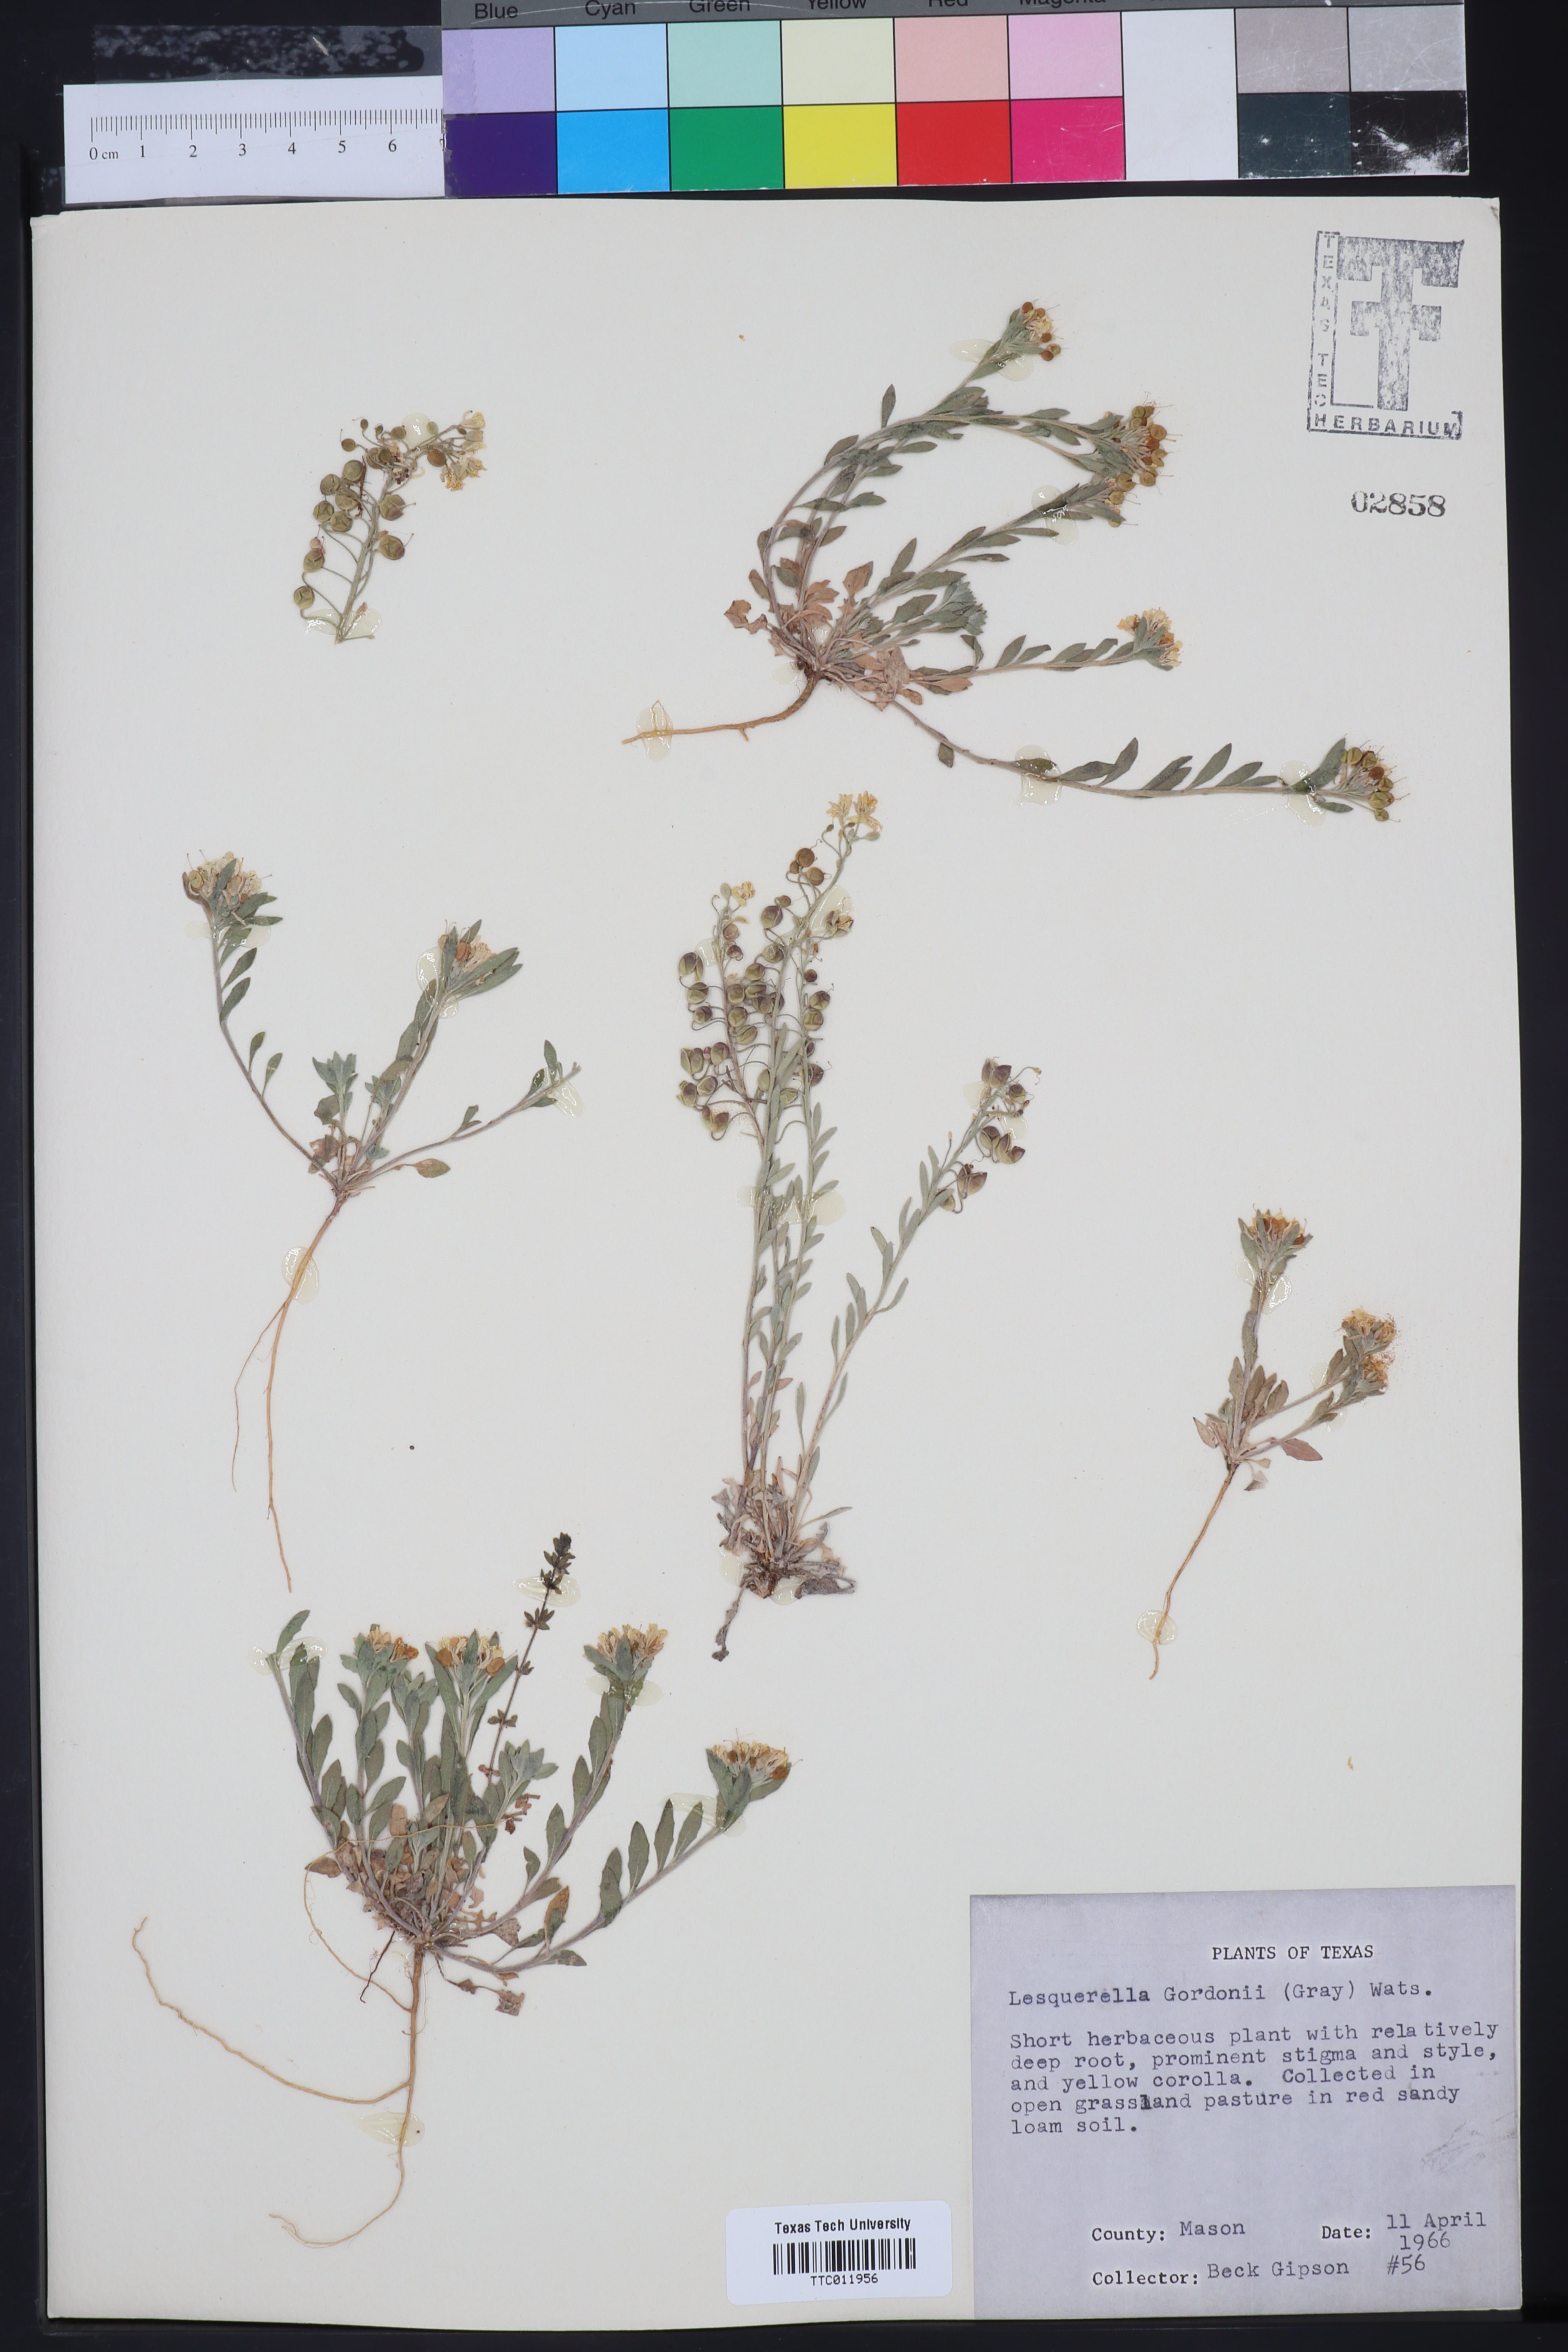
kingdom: Plantae
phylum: Tracheophyta
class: Magnoliopsida
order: Brassicales
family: Brassicaceae
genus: Physaria
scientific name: Physaria gordonii
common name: Gordon's bladderpod
